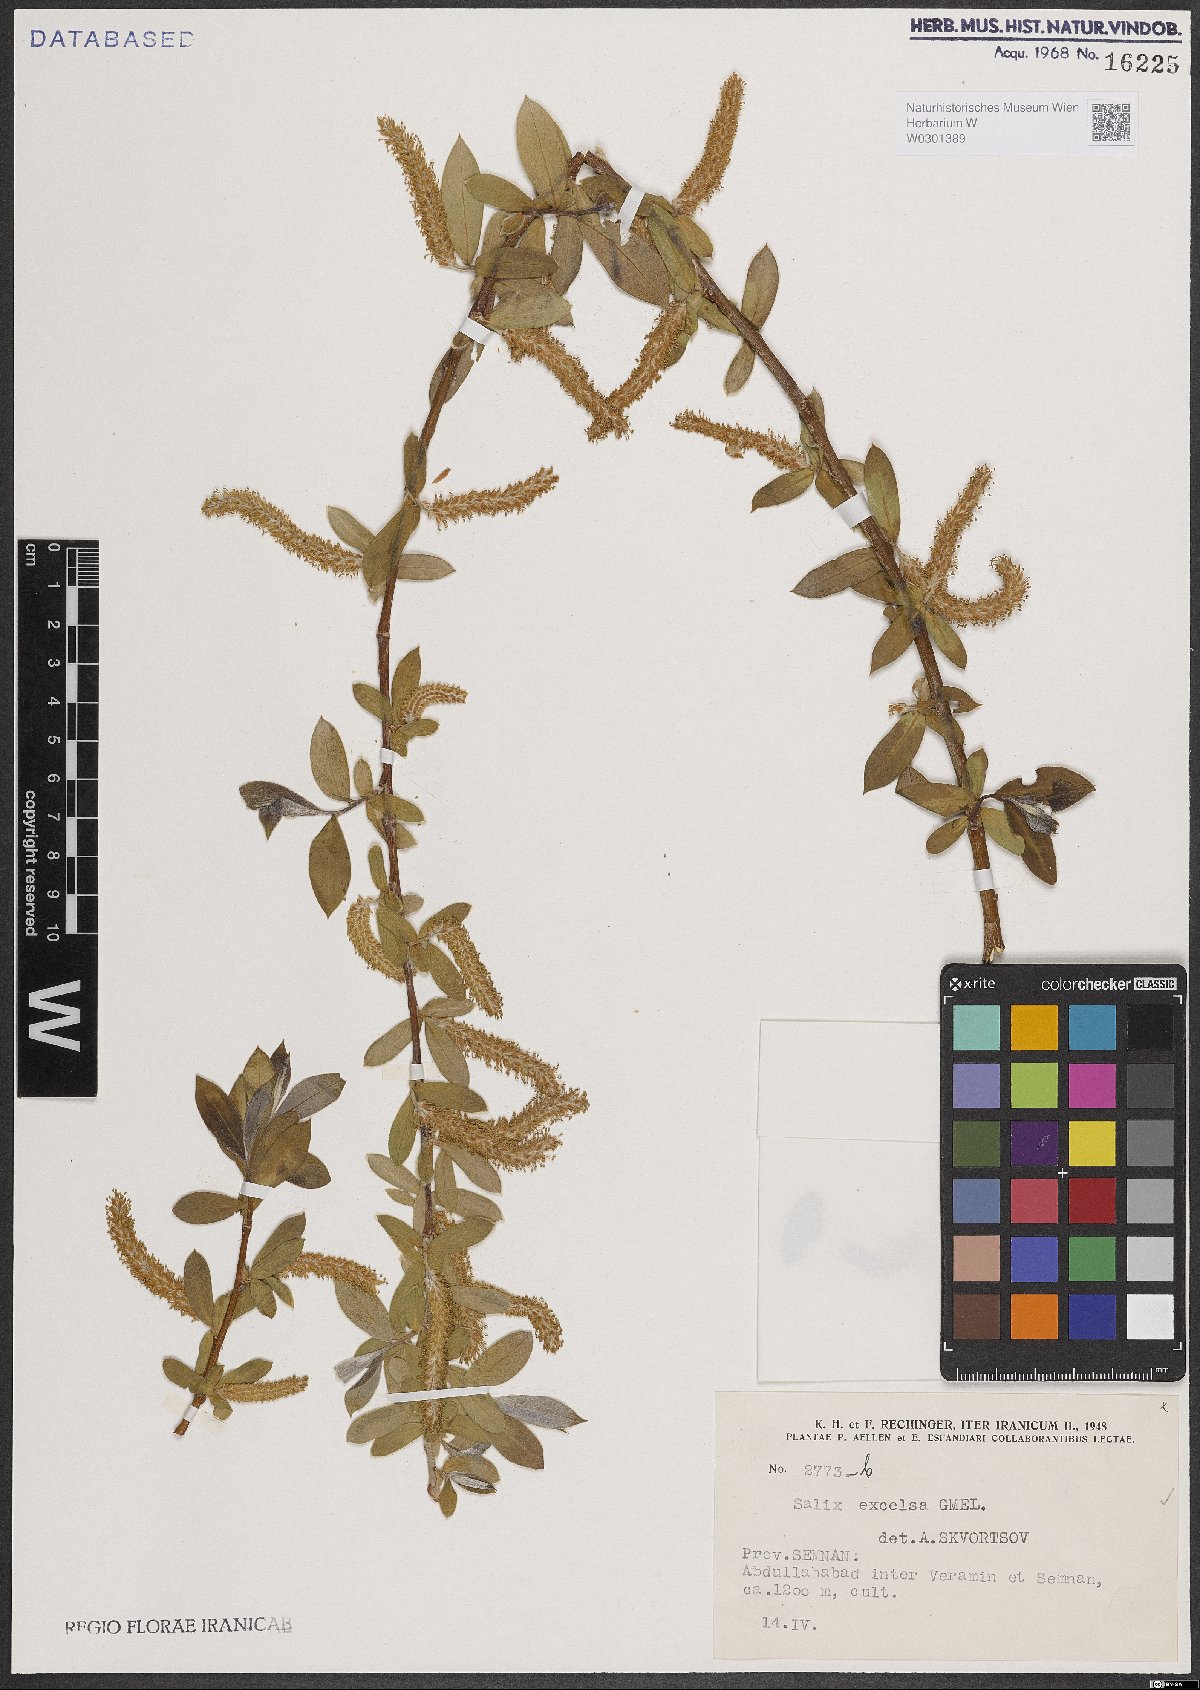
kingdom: Plantae
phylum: Tracheophyta
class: Magnoliopsida
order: Malpighiales
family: Salicaceae
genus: Salix
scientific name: Salix excelsa
